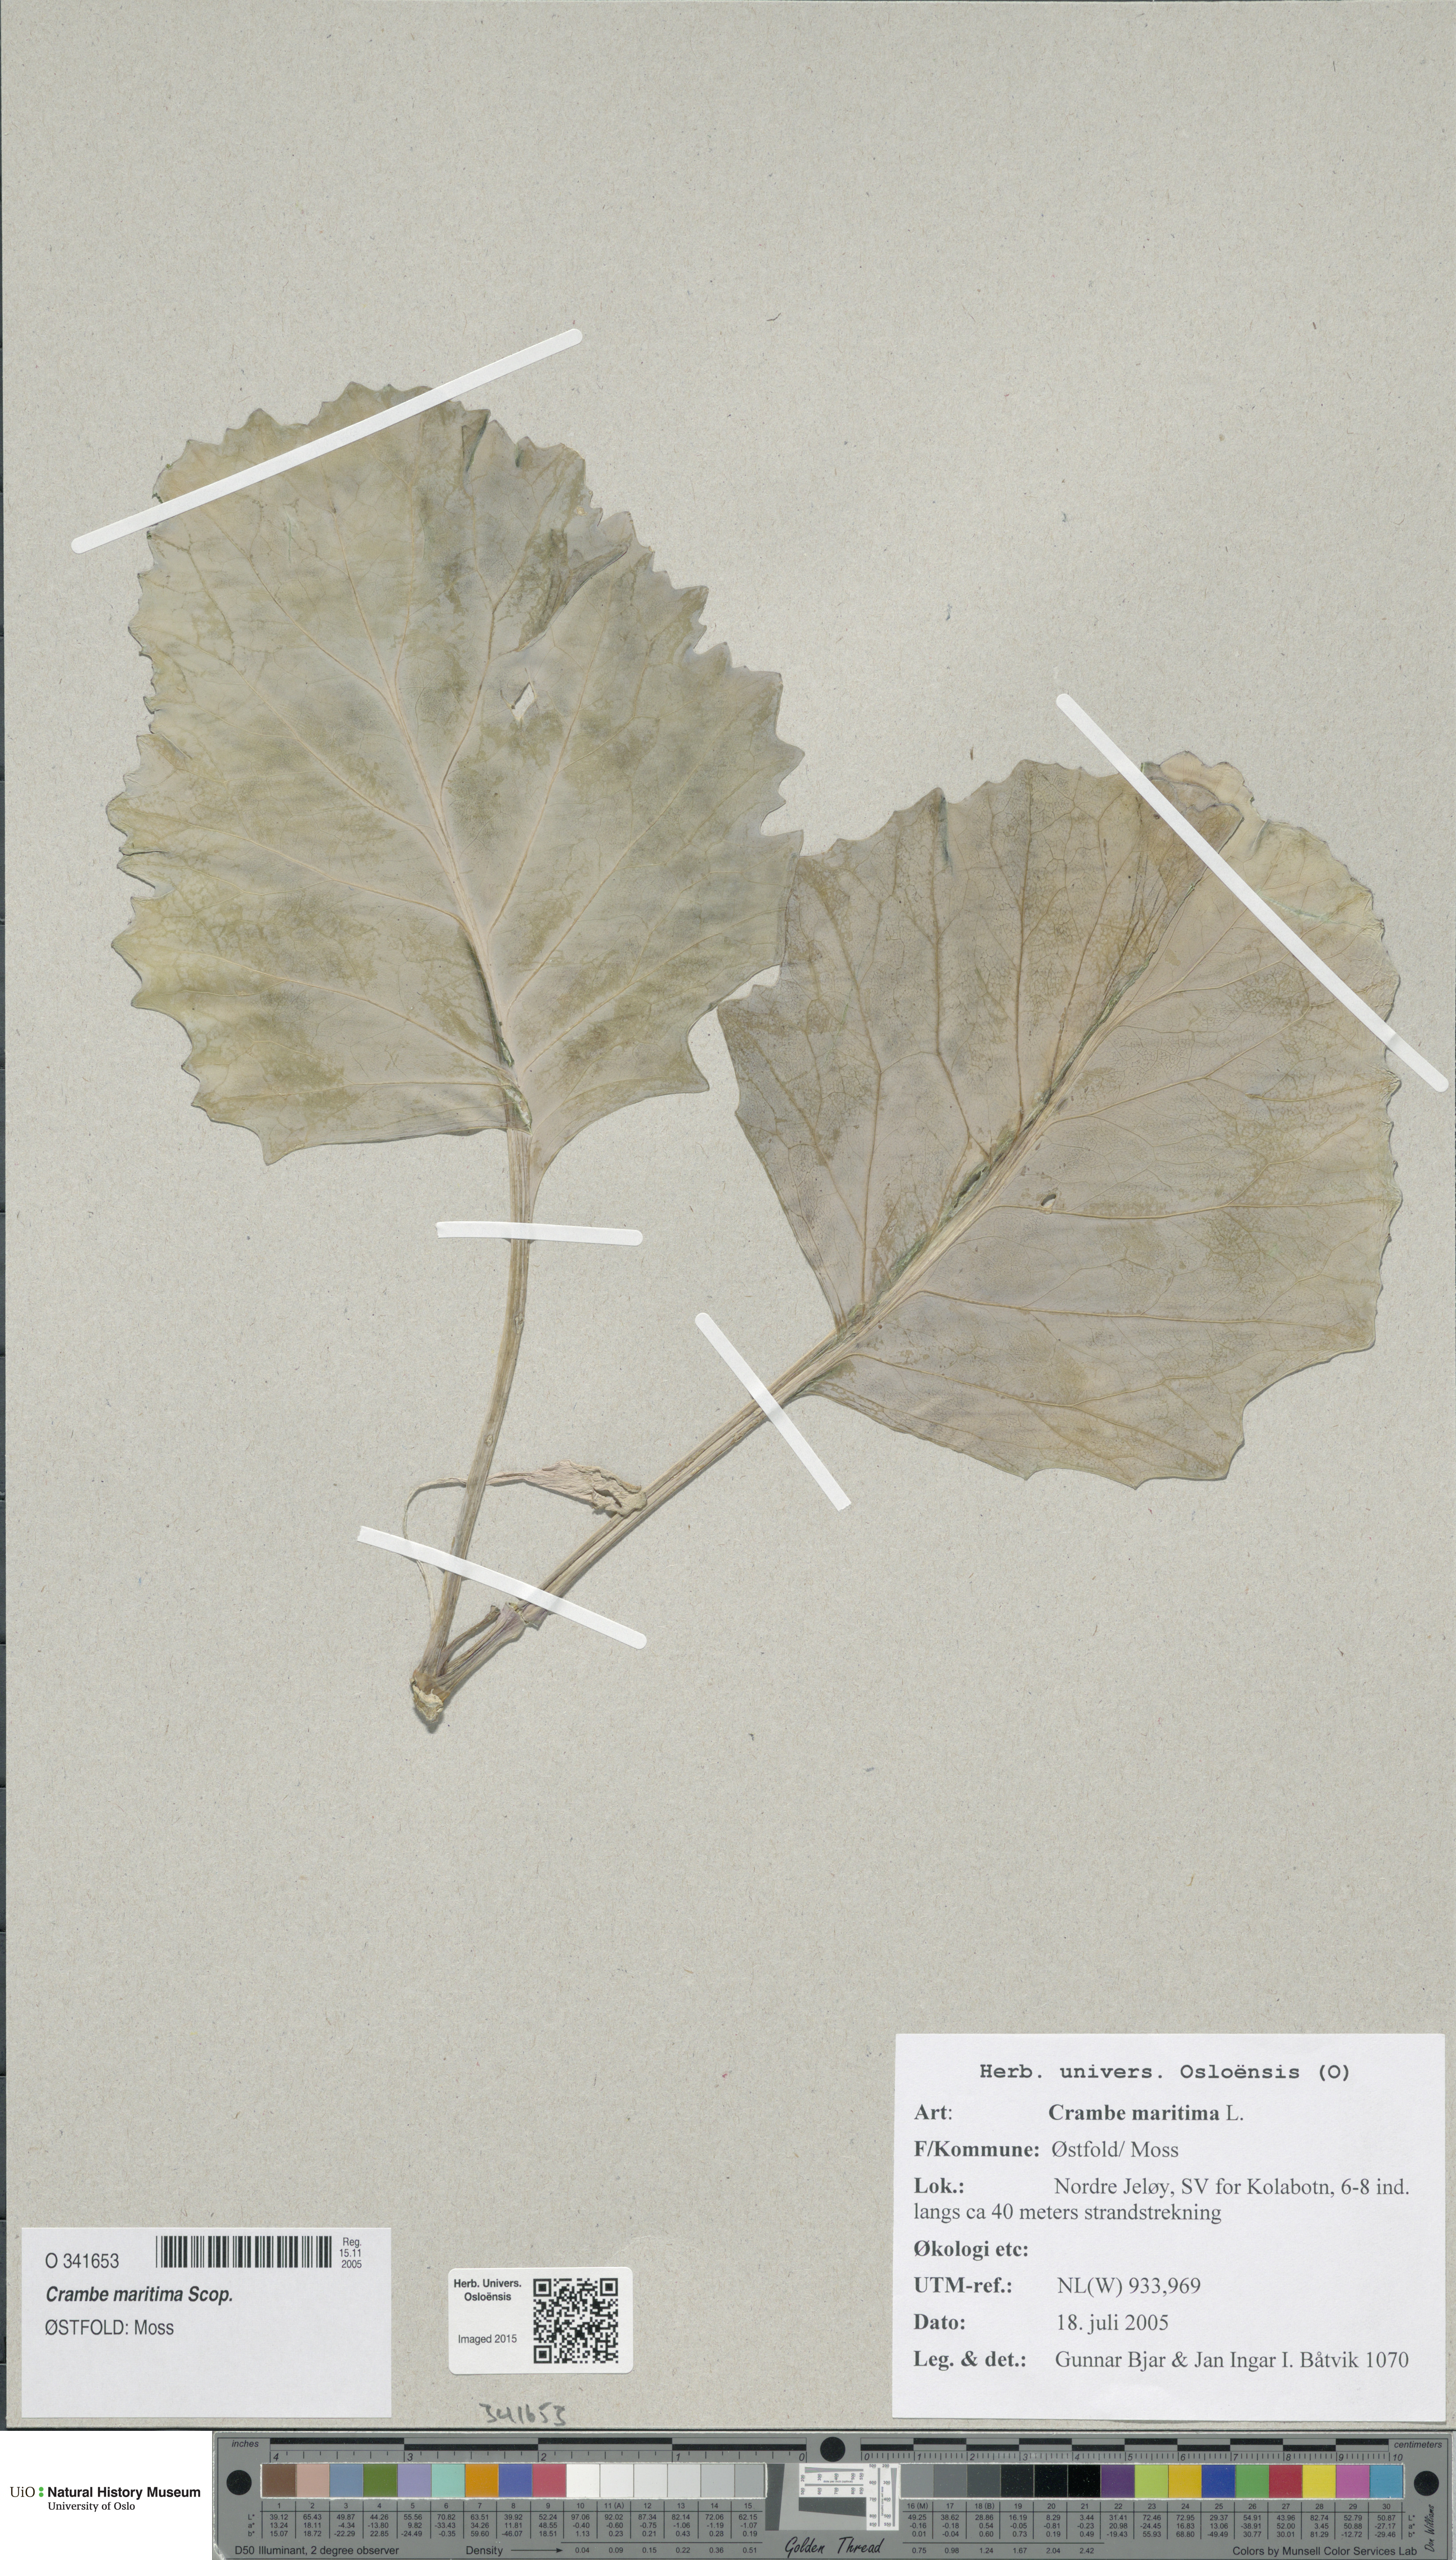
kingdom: Plantae
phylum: Tracheophyta
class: Magnoliopsida
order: Brassicales
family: Brassicaceae
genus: Crambe
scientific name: Crambe maritima
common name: Sea-kale
